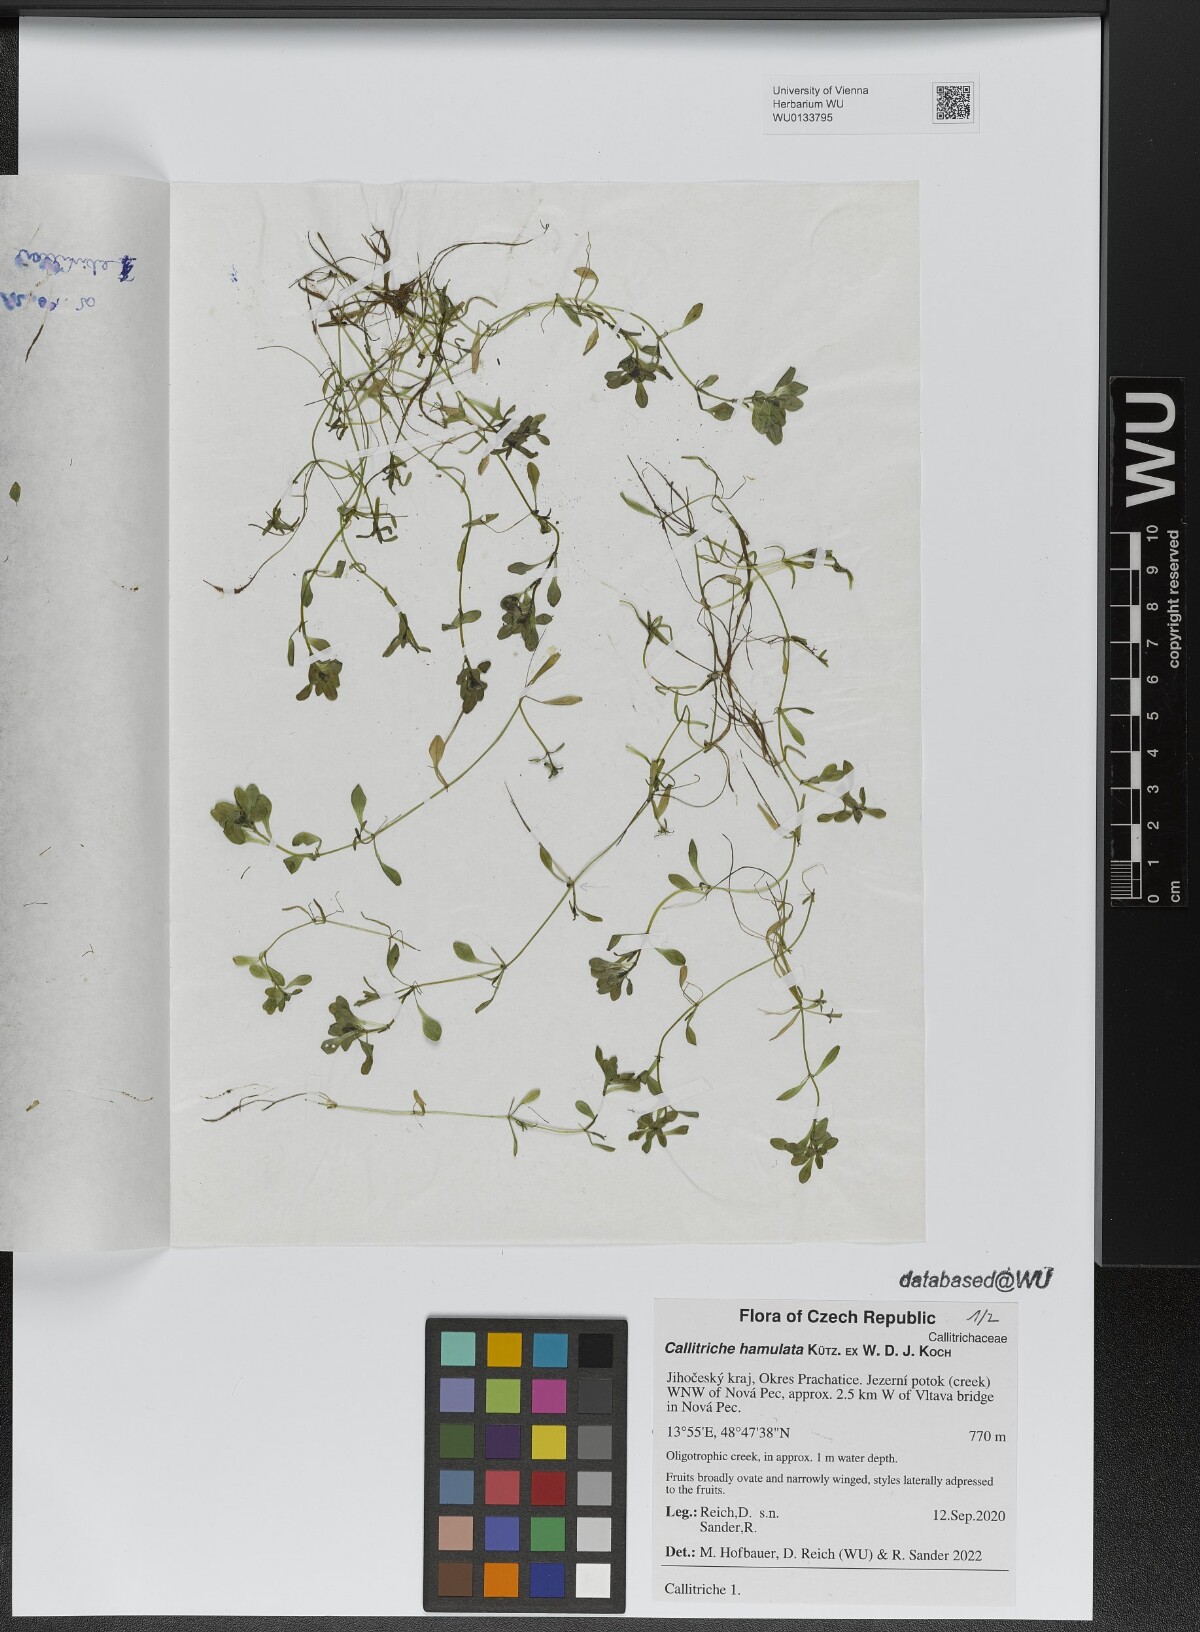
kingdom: Plantae
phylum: Tracheophyta
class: Magnoliopsida
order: Lamiales
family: Plantaginaceae
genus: Callitriche
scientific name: Callitriche hamulata
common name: Intermediate water-starwort
